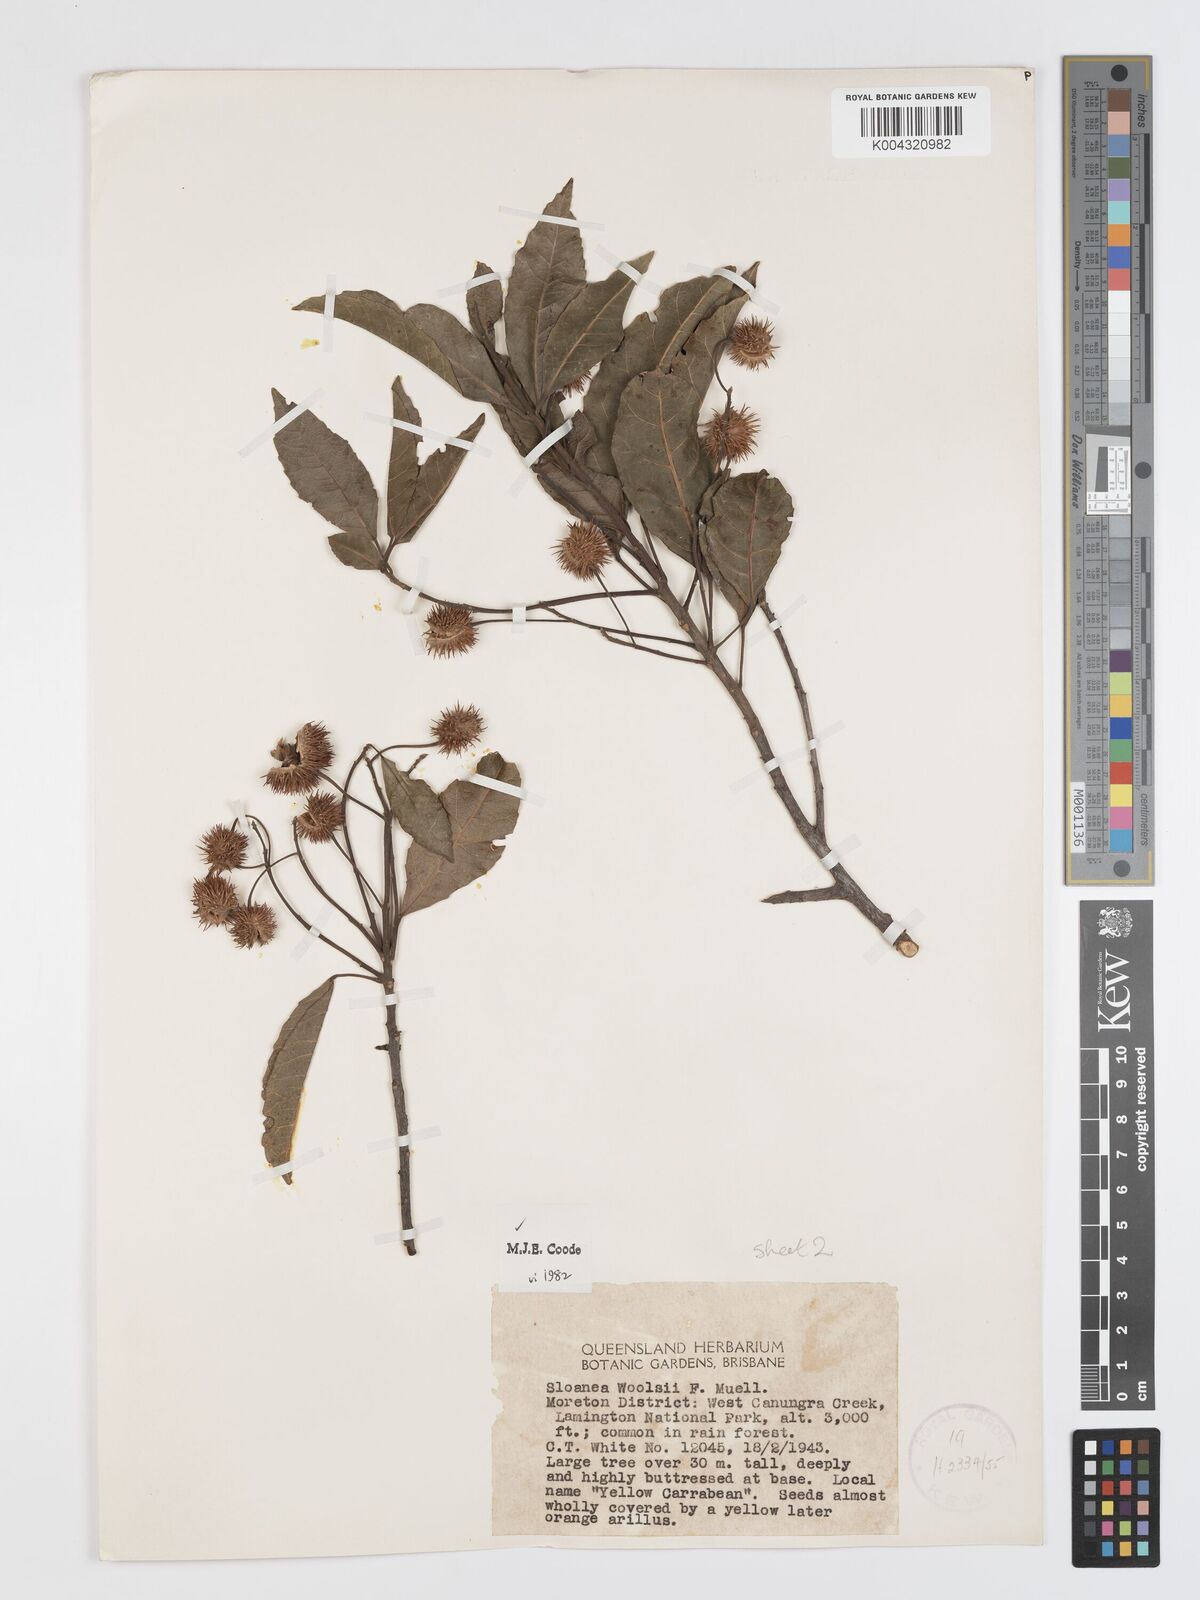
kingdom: Plantae
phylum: Tracheophyta
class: Magnoliopsida
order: Oxalidales
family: Elaeocarpaceae
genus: Sloanea
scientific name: Sloanea woollsii
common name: Yellow carabeen
